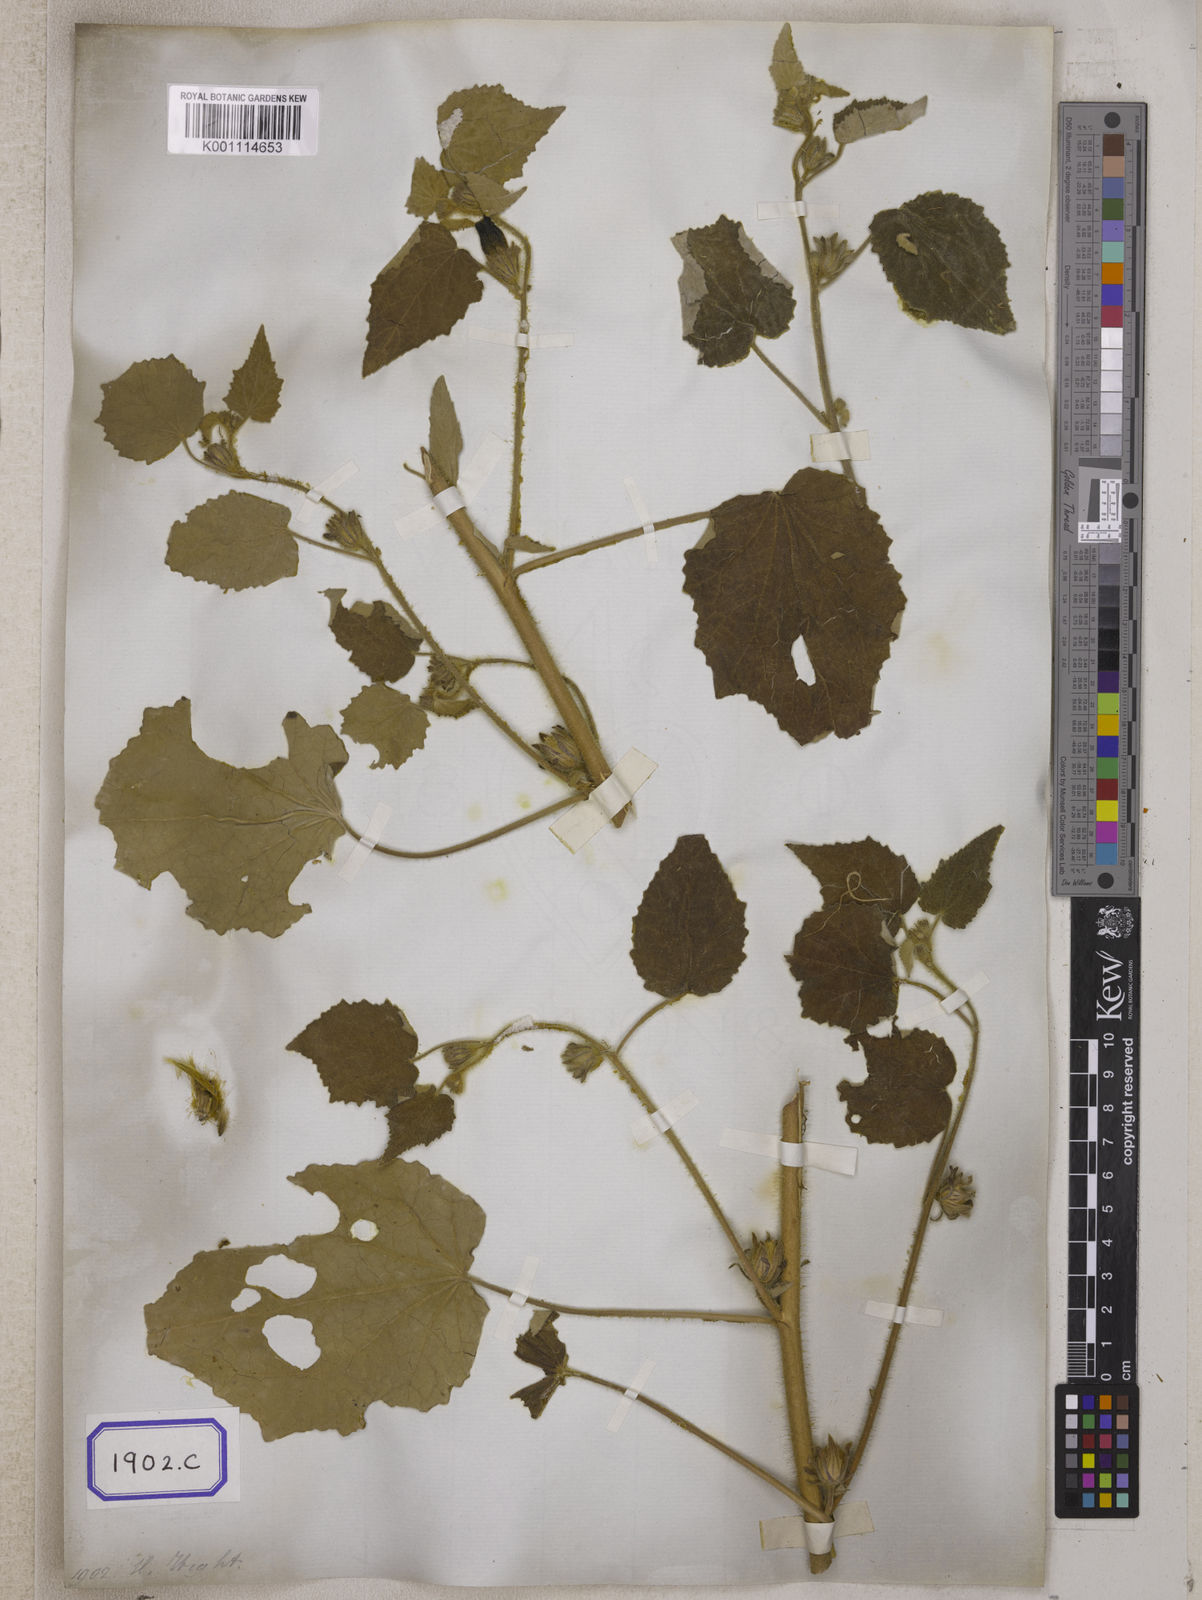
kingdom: Plantae
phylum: Tracheophyta
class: Magnoliopsida
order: Malvales
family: Malvaceae
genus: Talipariti
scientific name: Talipariti macrophyllum
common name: Largeleaf rosemallow
